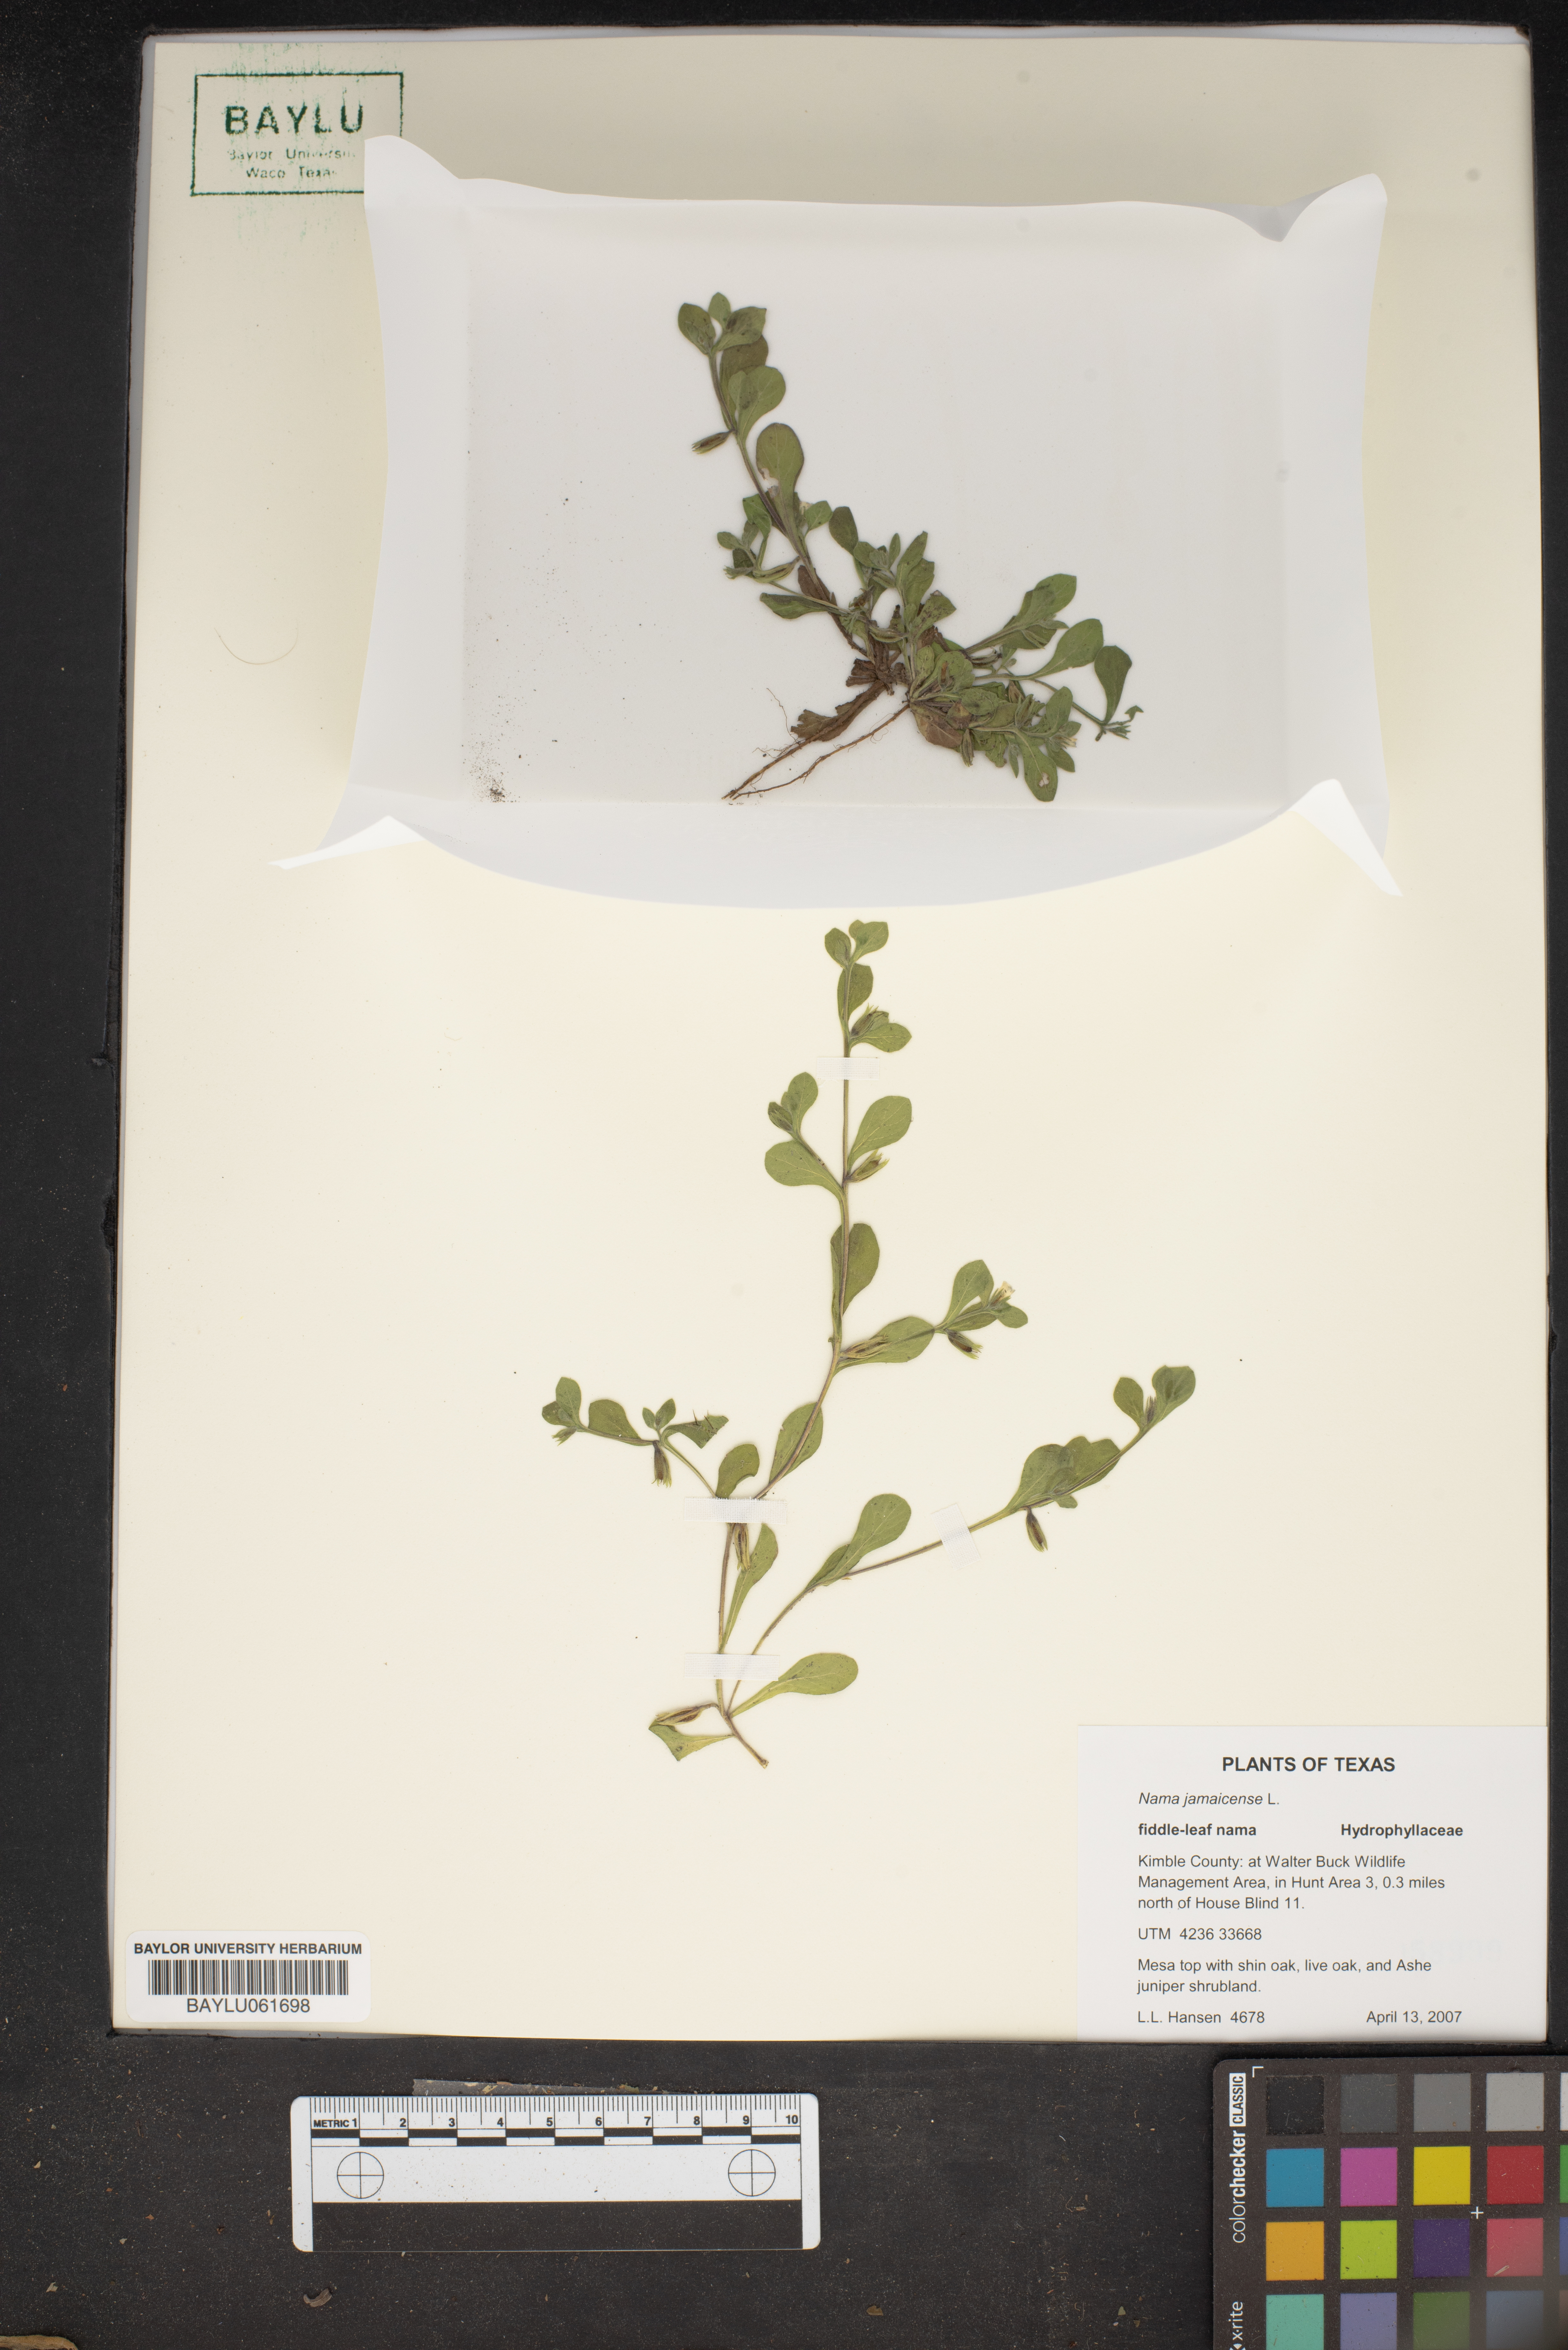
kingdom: Plantae
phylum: Tracheophyta
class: Magnoliopsida
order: Boraginales
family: Namaceae
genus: Nama
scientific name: Nama jamaicense
